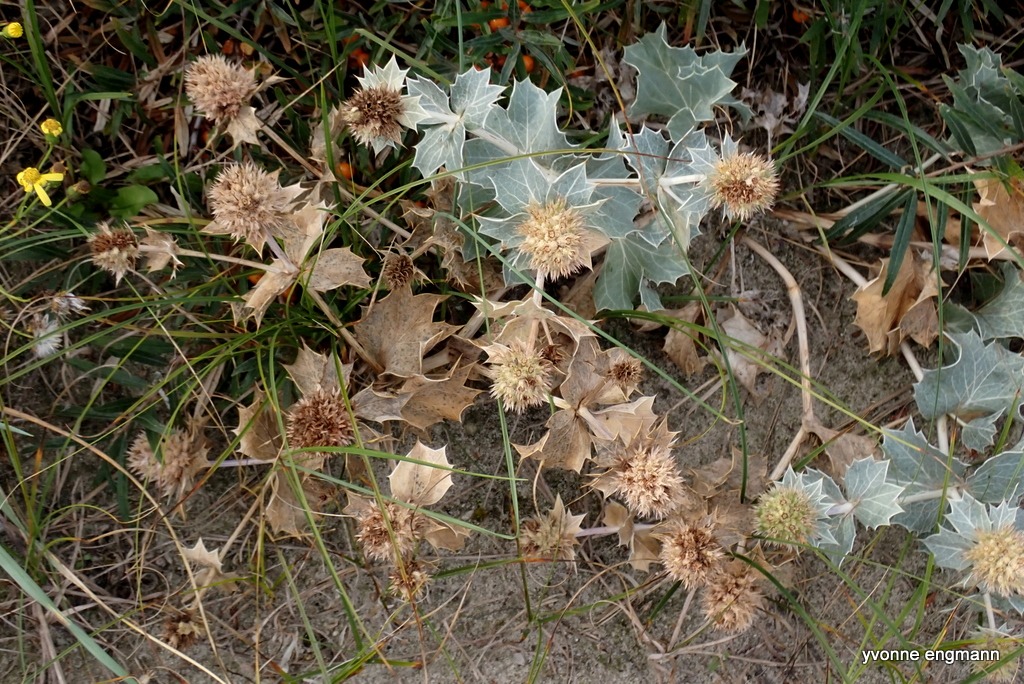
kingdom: Plantae
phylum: Tracheophyta
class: Magnoliopsida
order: Apiales
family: Apiaceae
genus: Eryngium
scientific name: Eryngium maritimum
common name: Strand-mandstro
